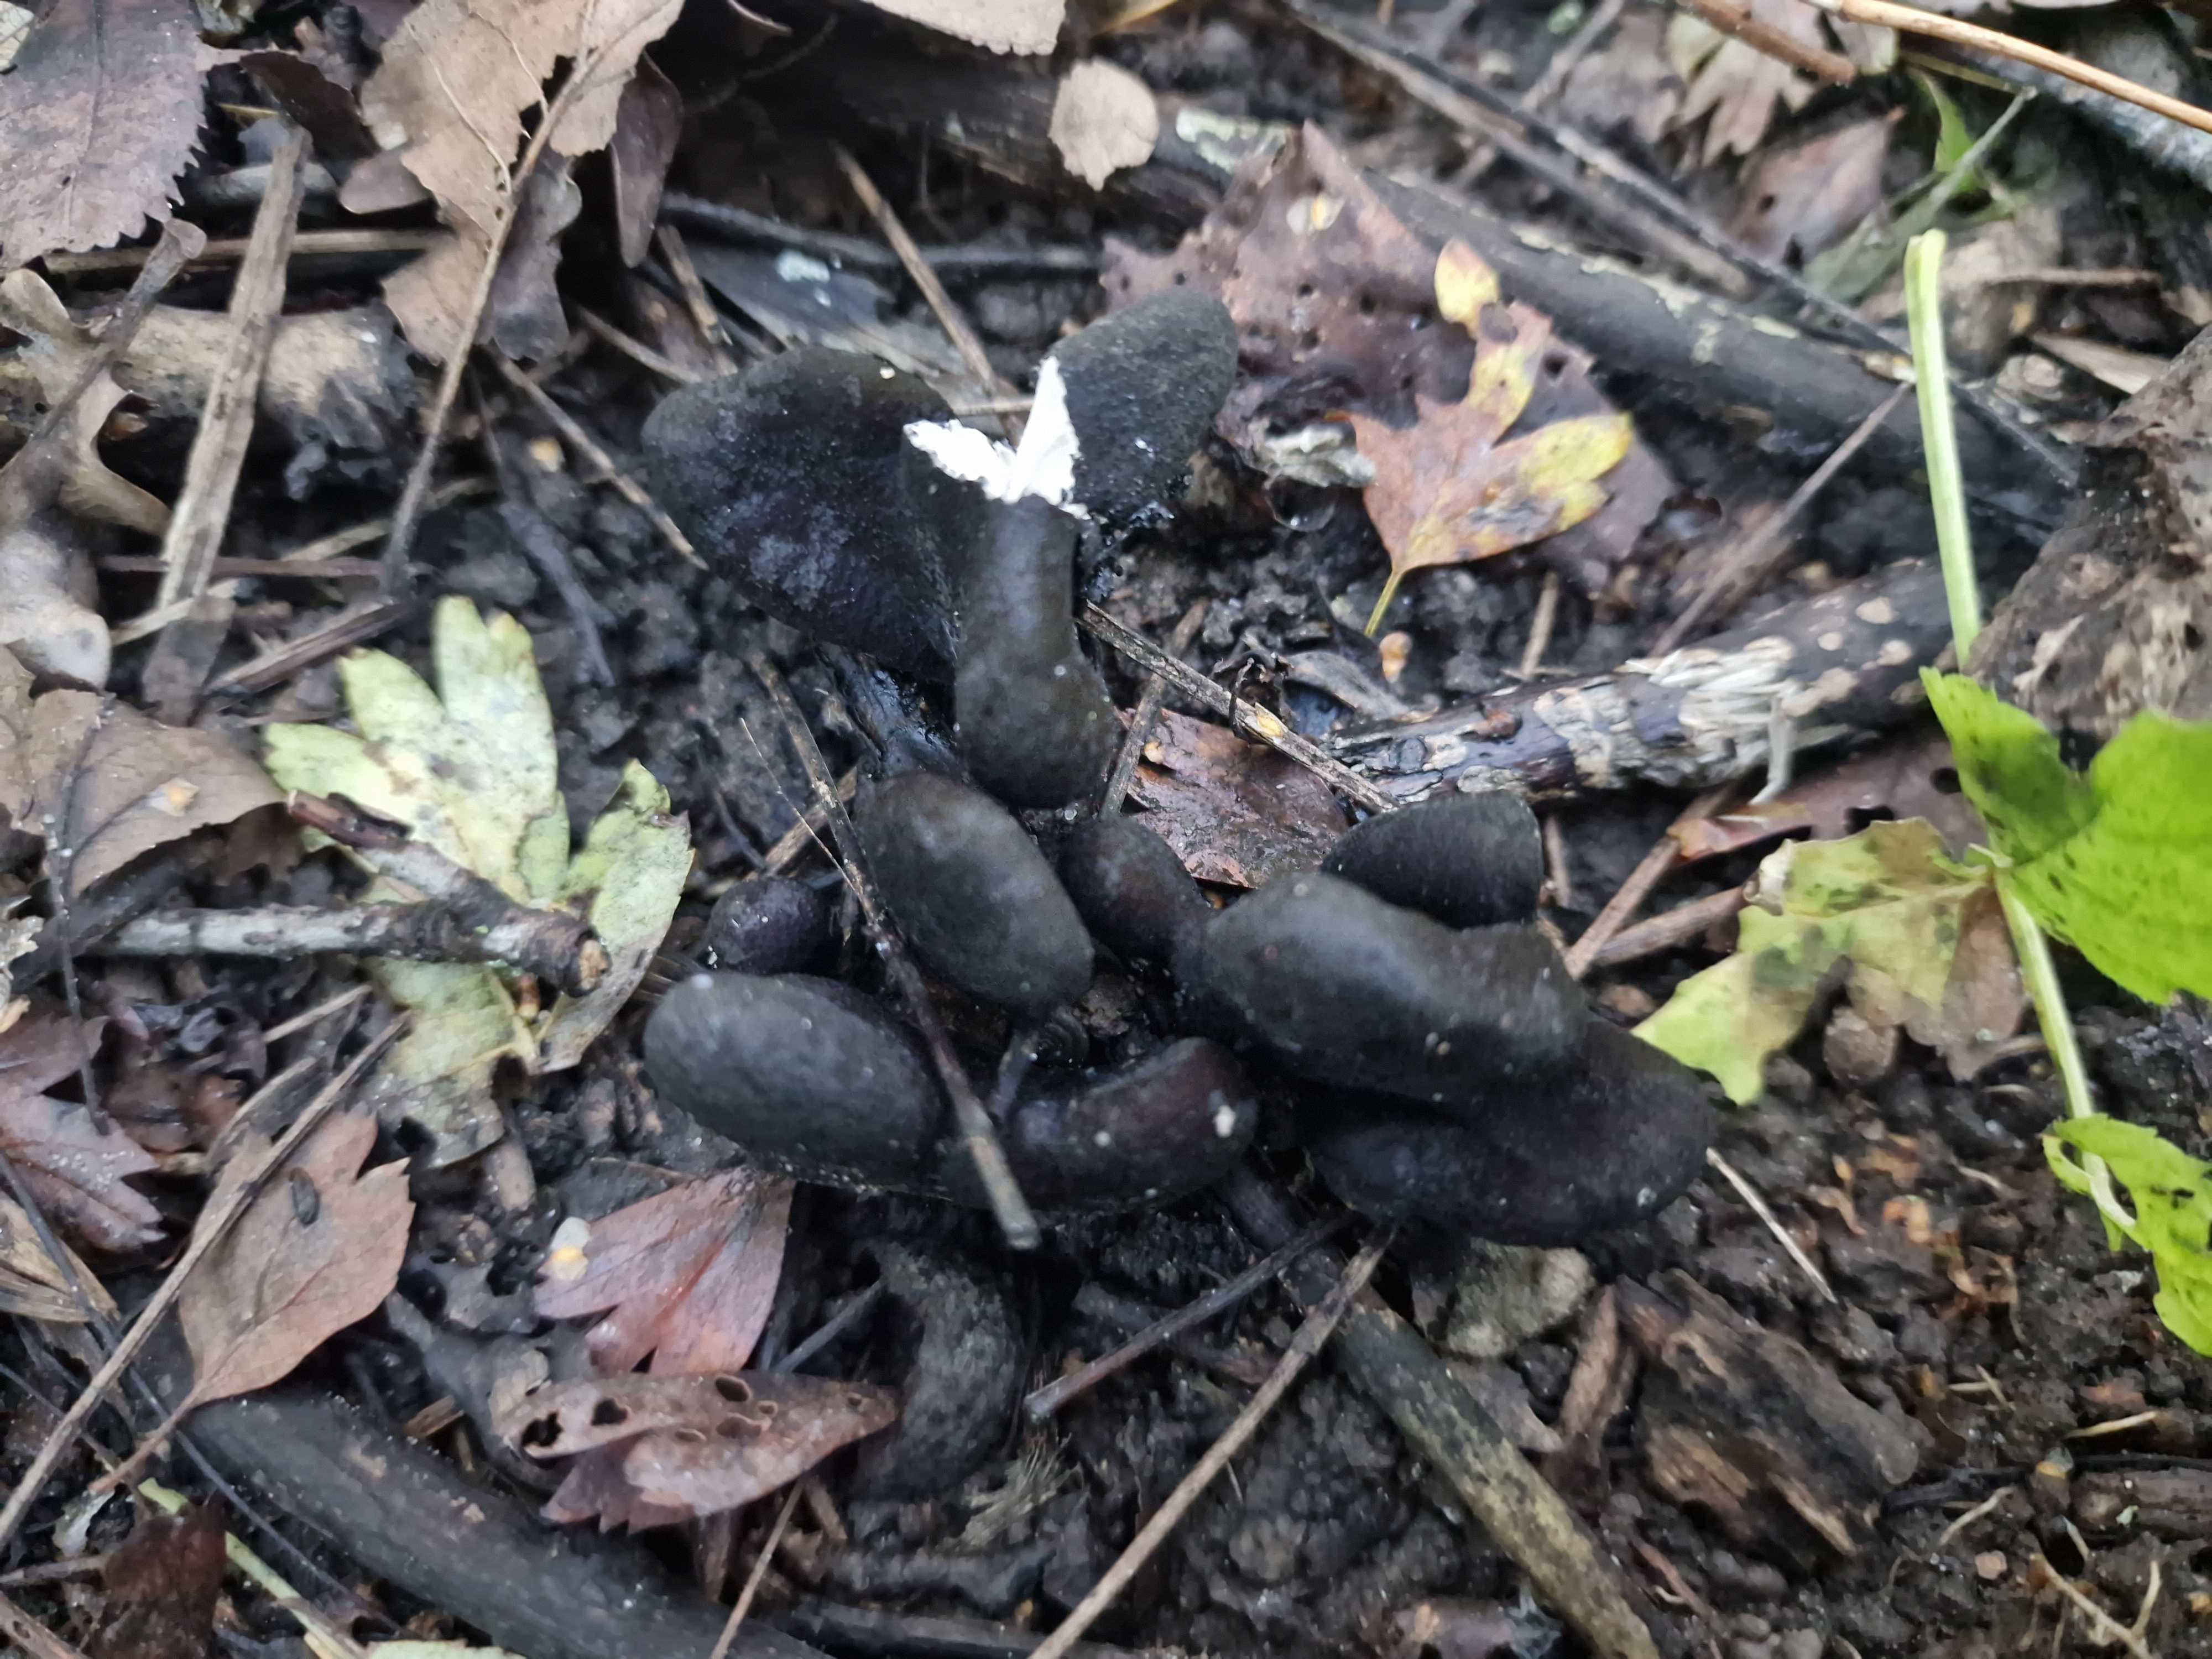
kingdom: Fungi
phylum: Ascomycota
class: Sordariomycetes
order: Xylariales
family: Xylariaceae
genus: Xylaria
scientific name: Xylaria polymorpha
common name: kølle-stødsvamp
